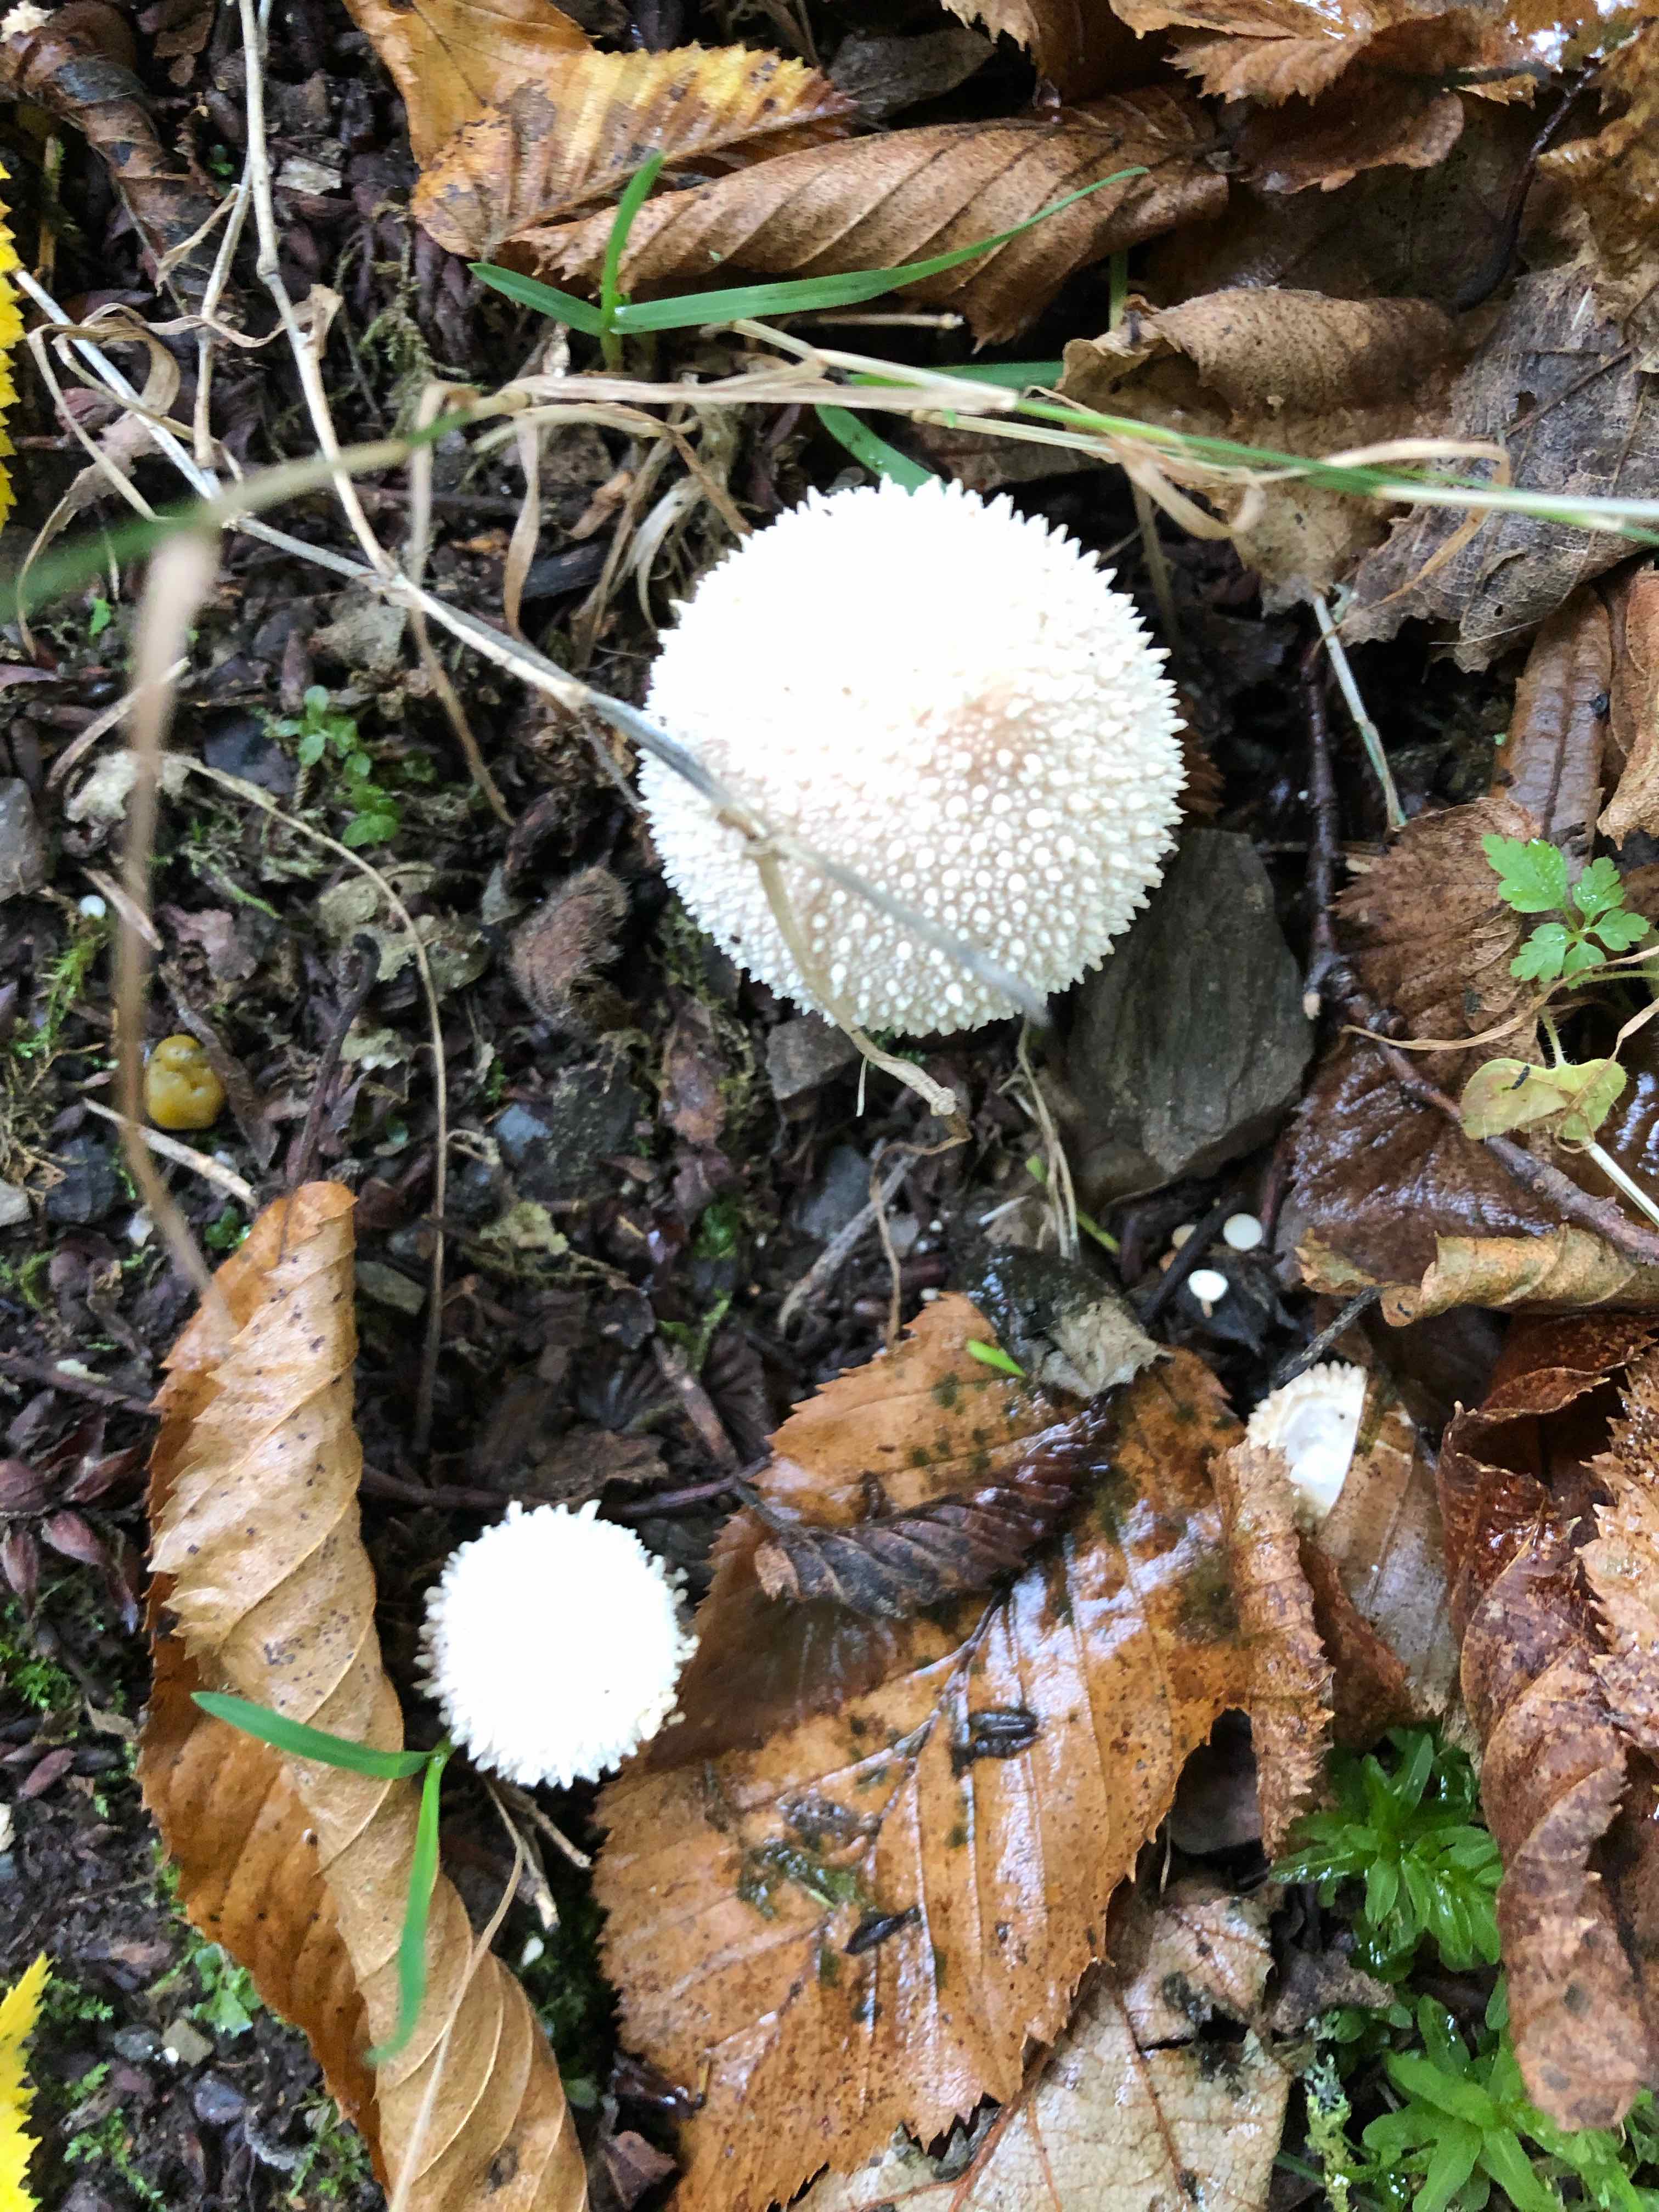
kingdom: Fungi
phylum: Basidiomycota
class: Agaricomycetes
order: Agaricales
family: Lycoperdaceae
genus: Lycoperdon
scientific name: Lycoperdon perlatum
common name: krystal-støvbold
